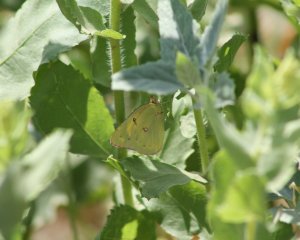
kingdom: Animalia
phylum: Arthropoda
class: Insecta
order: Lepidoptera
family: Pieridae
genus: Colias
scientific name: Colias philodice
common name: Clouded Sulphur
